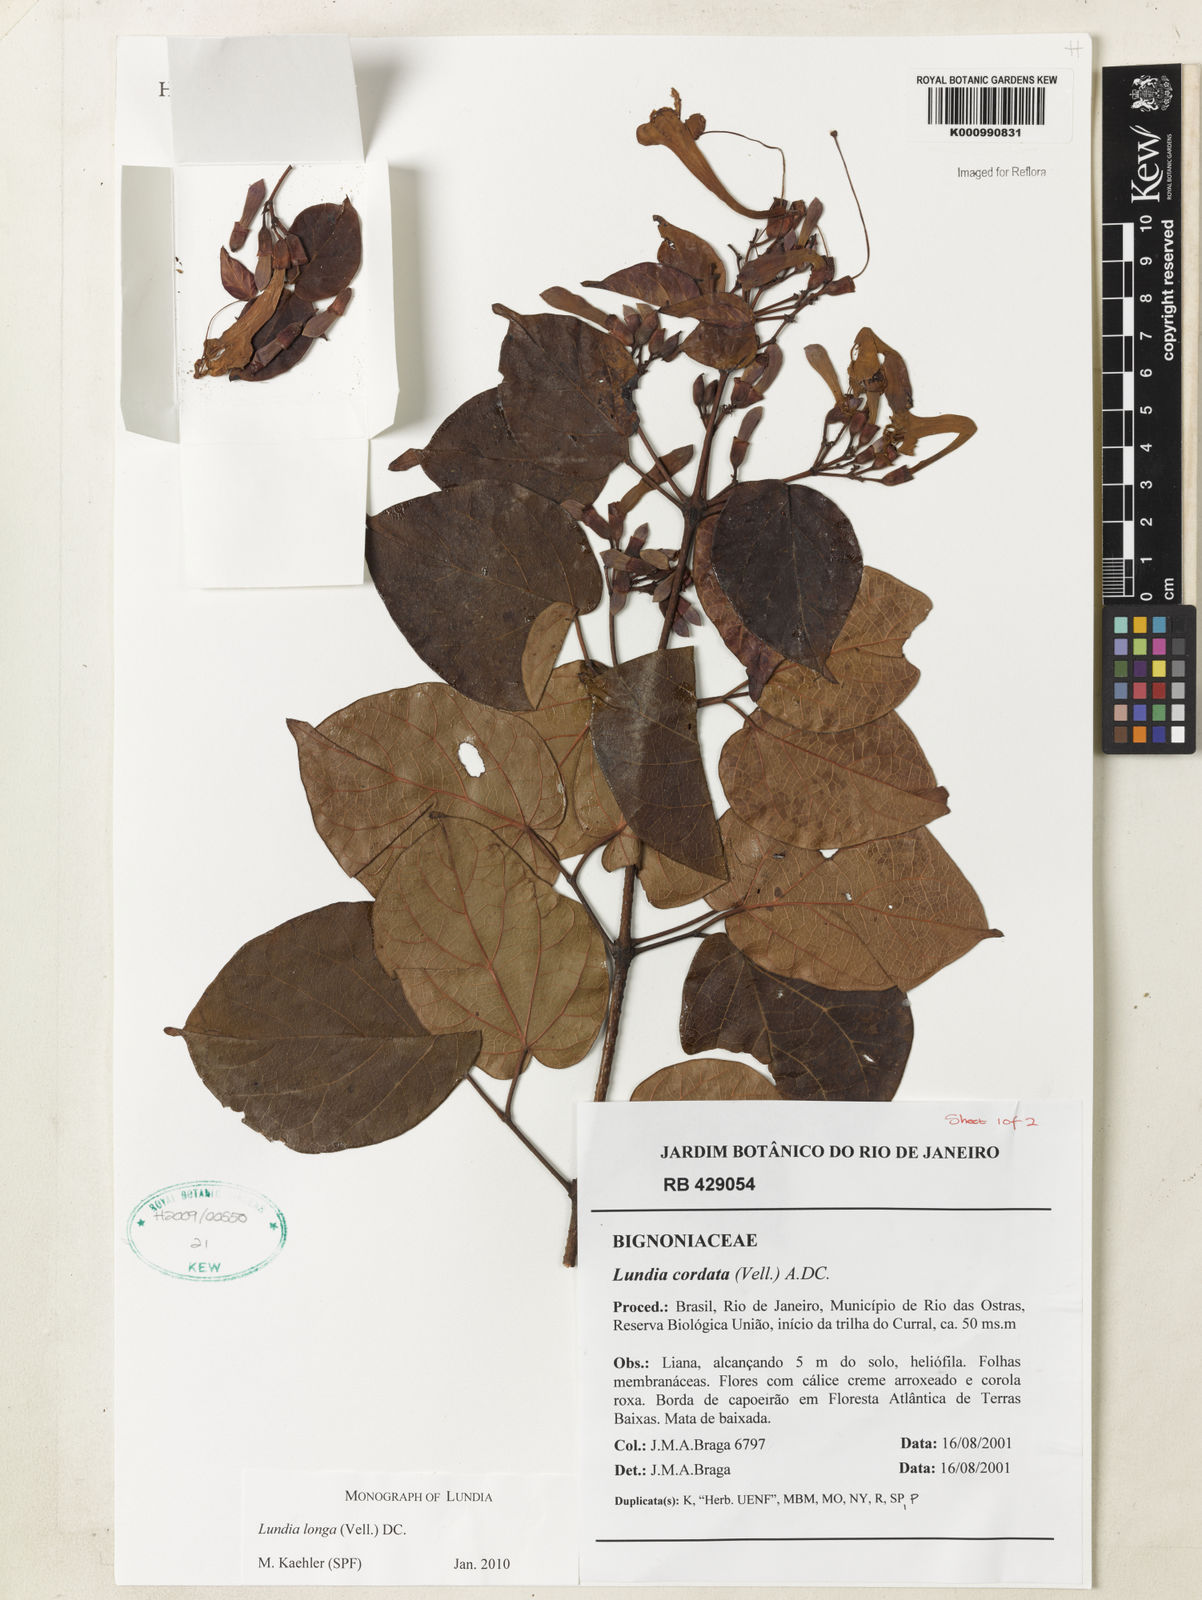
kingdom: Plantae
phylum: Tracheophyta
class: Magnoliopsida
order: Lamiales
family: Bignoniaceae
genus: Lundia
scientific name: Lundia longa
